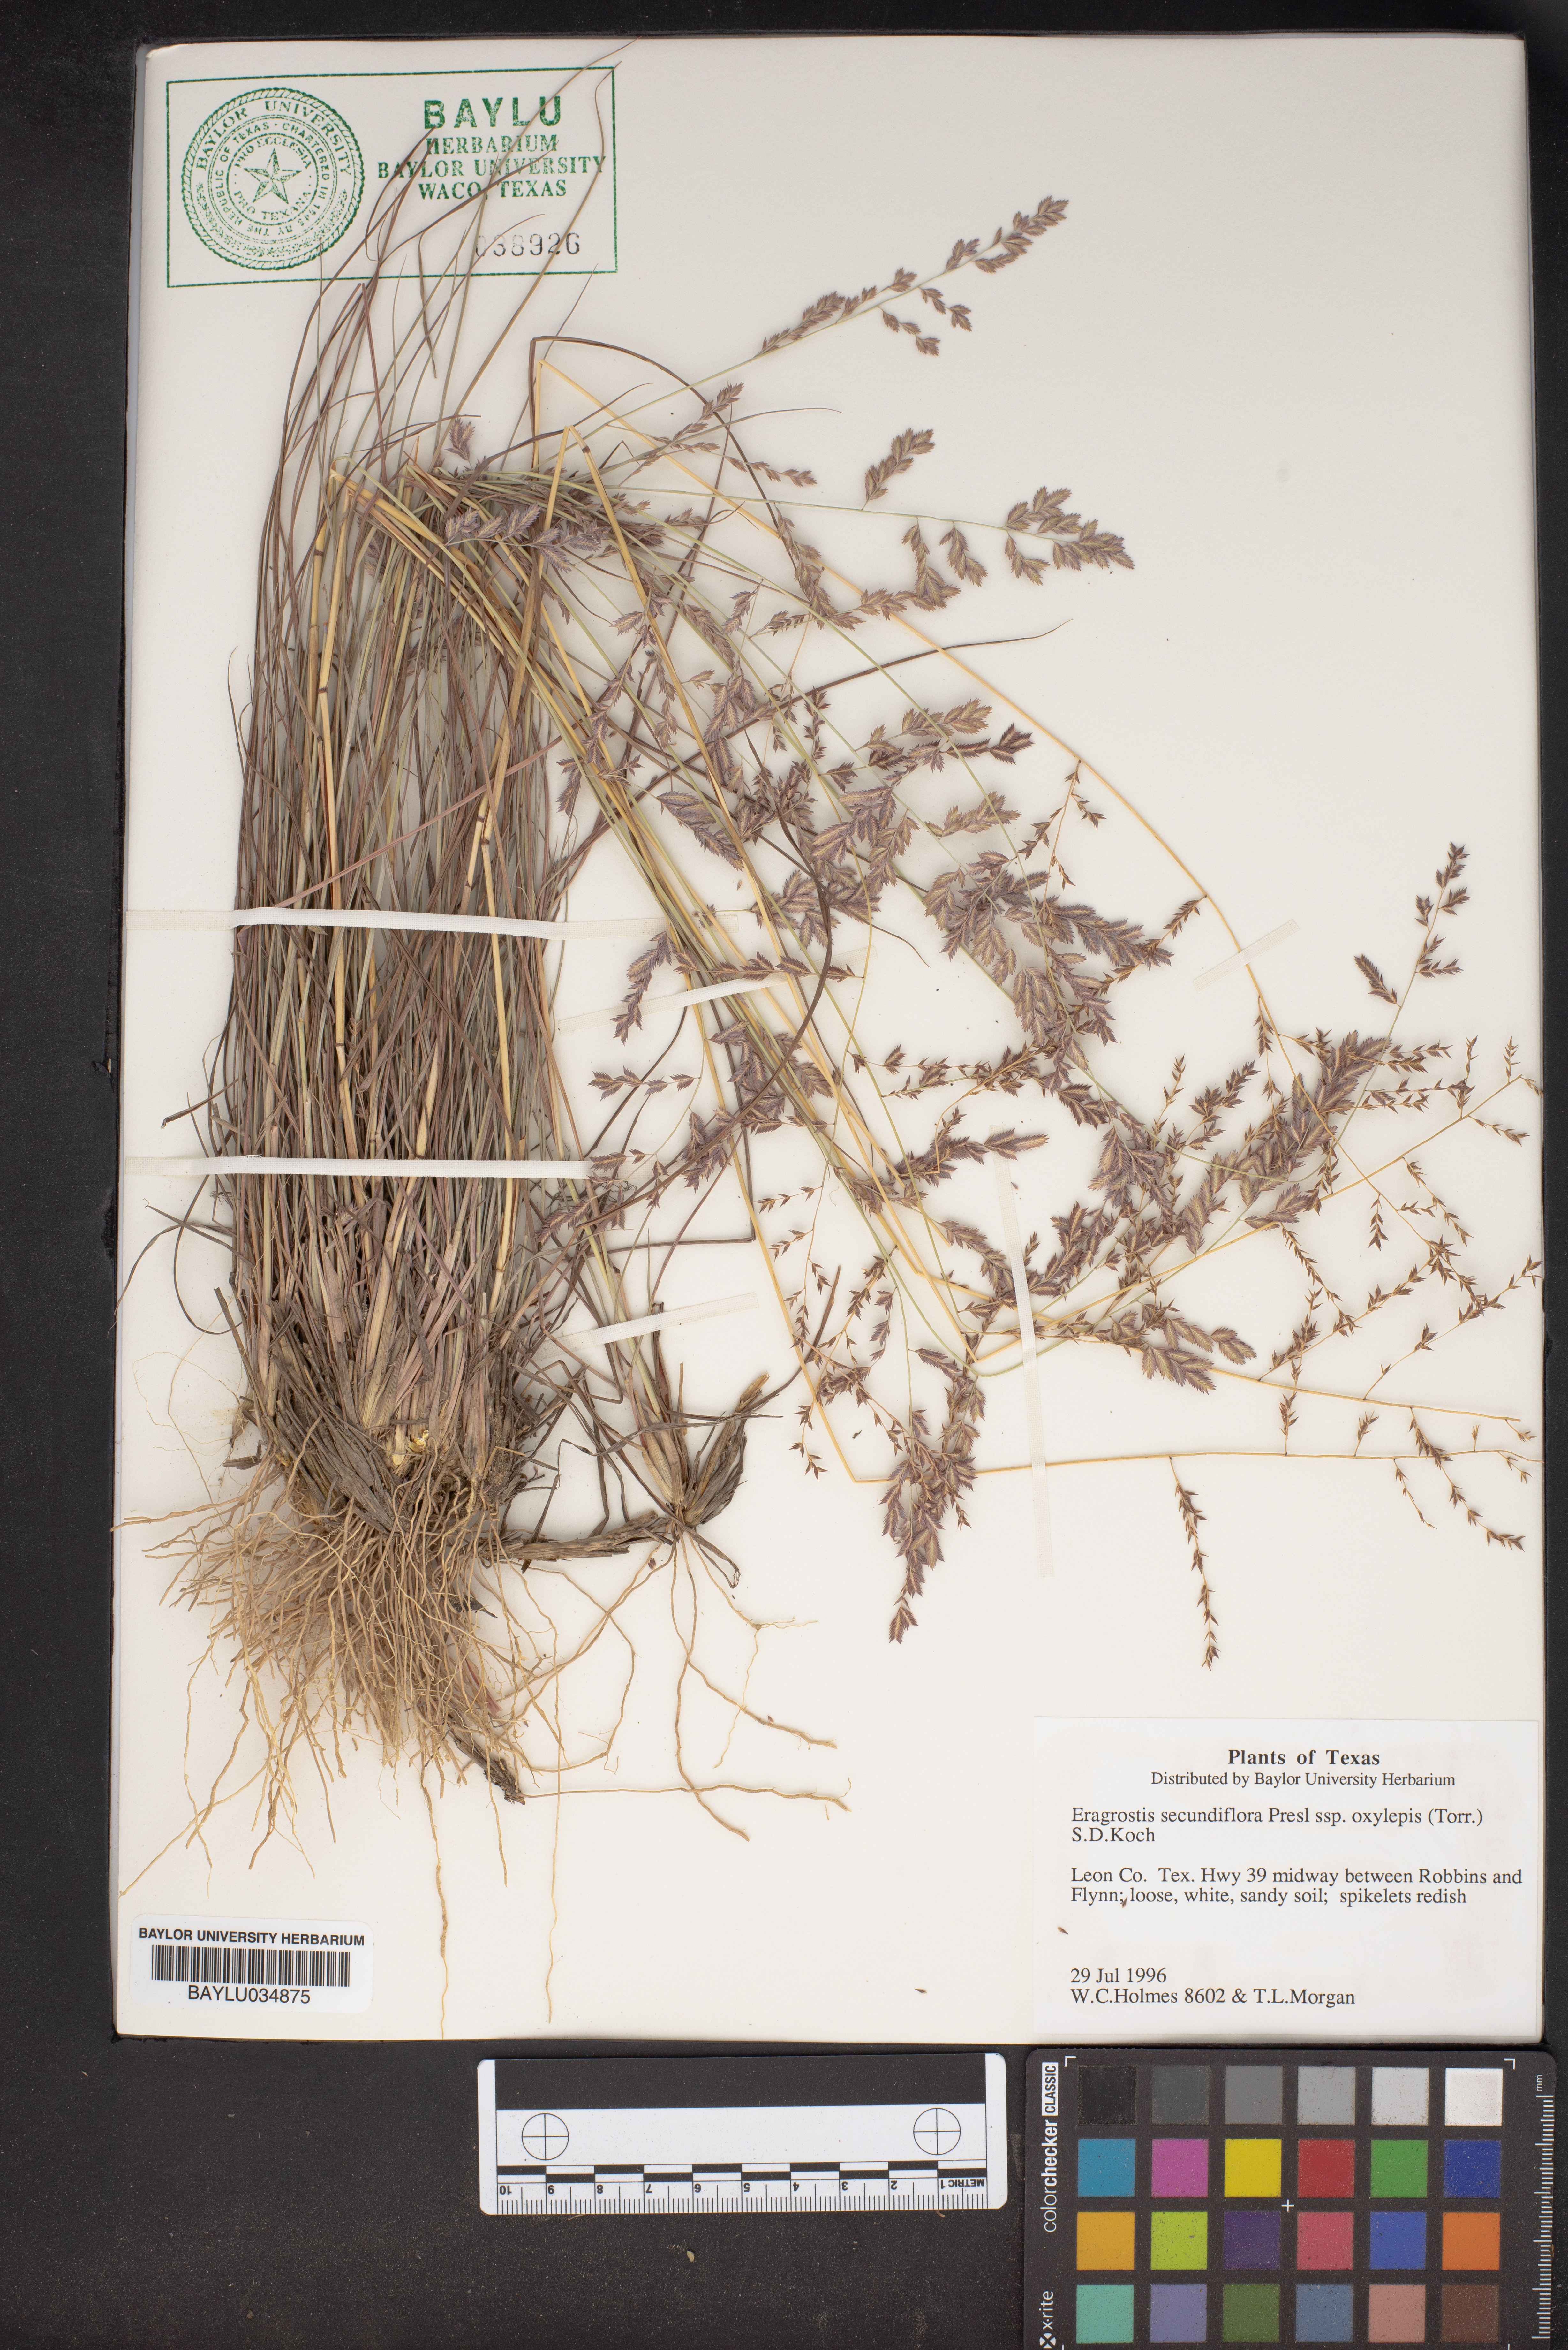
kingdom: Plantae
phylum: Tracheophyta
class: Liliopsida
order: Poales
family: Poaceae
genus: Eragrostis
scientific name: Eragrostis secundiflora
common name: Red love grass
